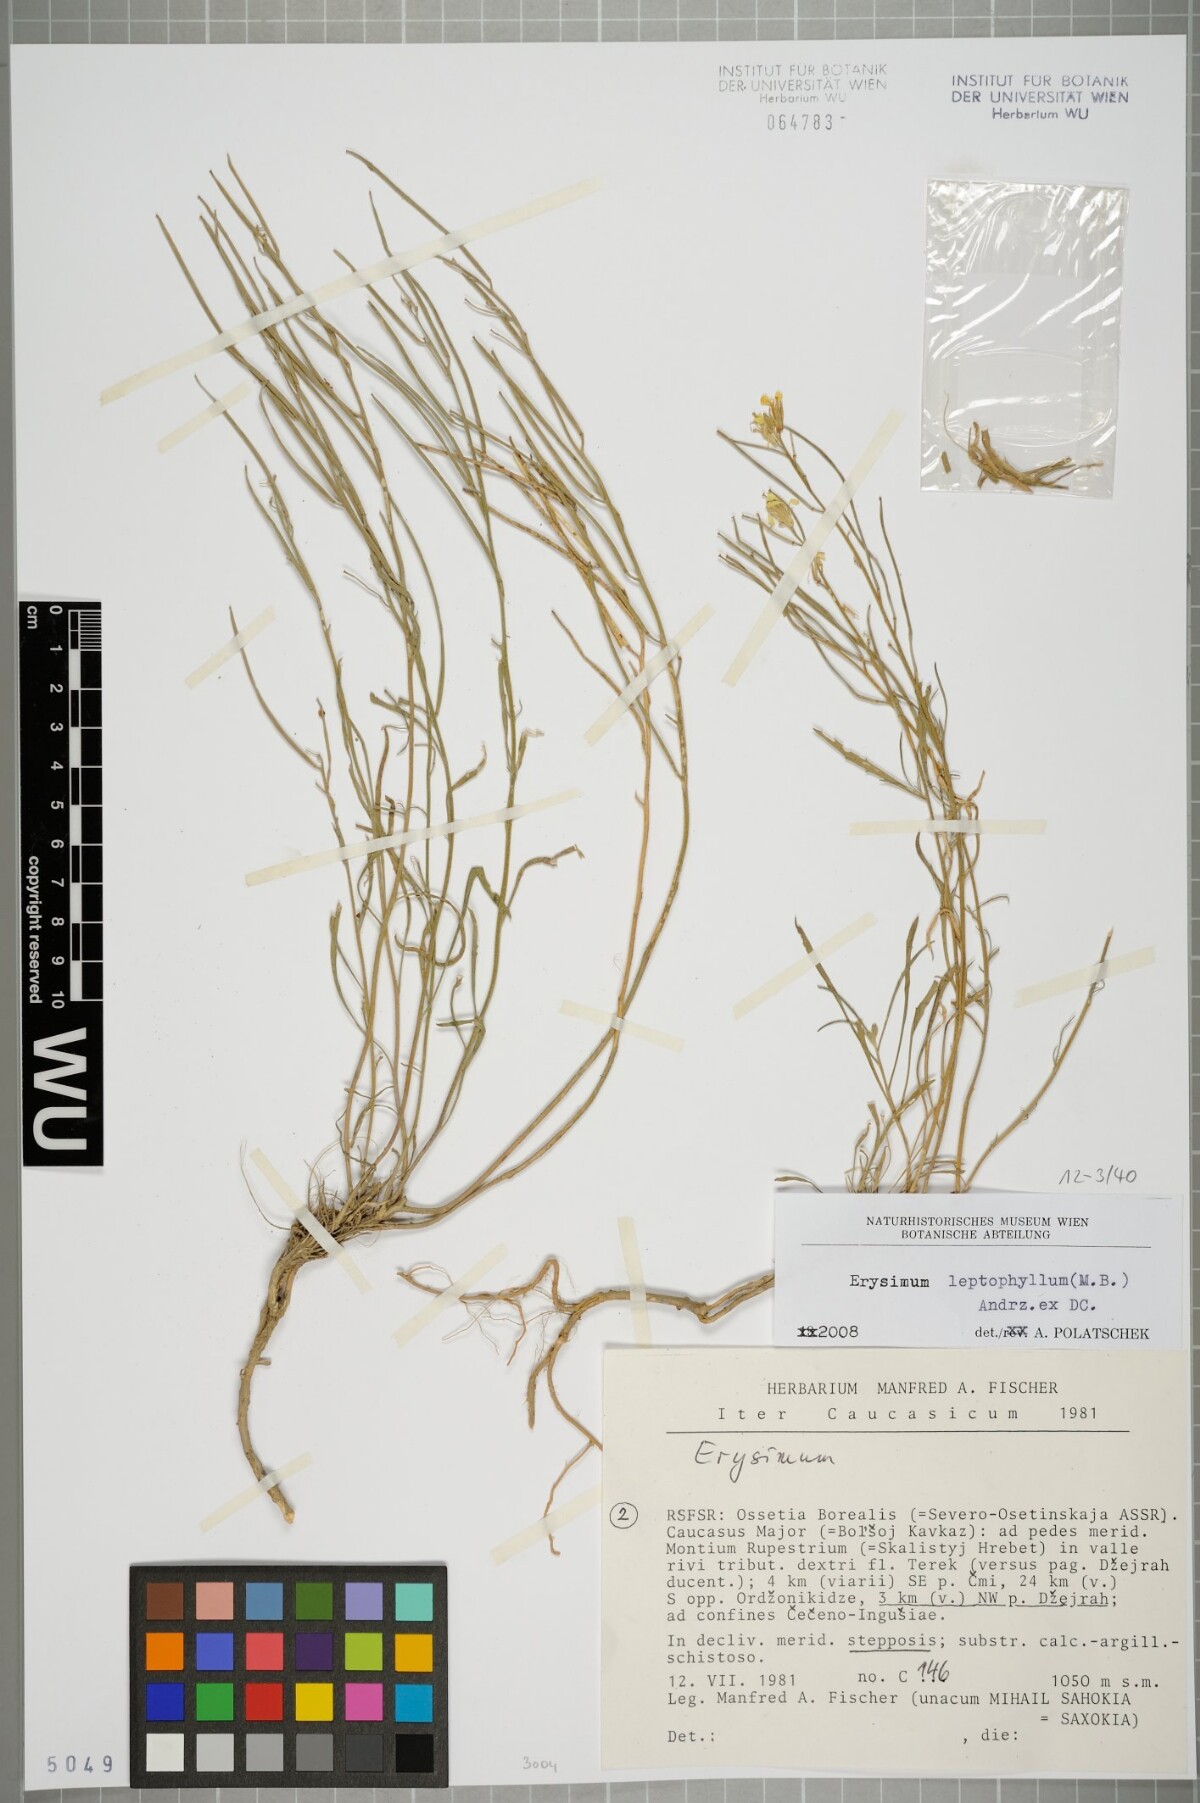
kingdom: Plantae
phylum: Tracheophyta
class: Magnoliopsida
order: Brassicales
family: Brassicaceae
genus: Erysimum
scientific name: Erysimum leptophyllum
